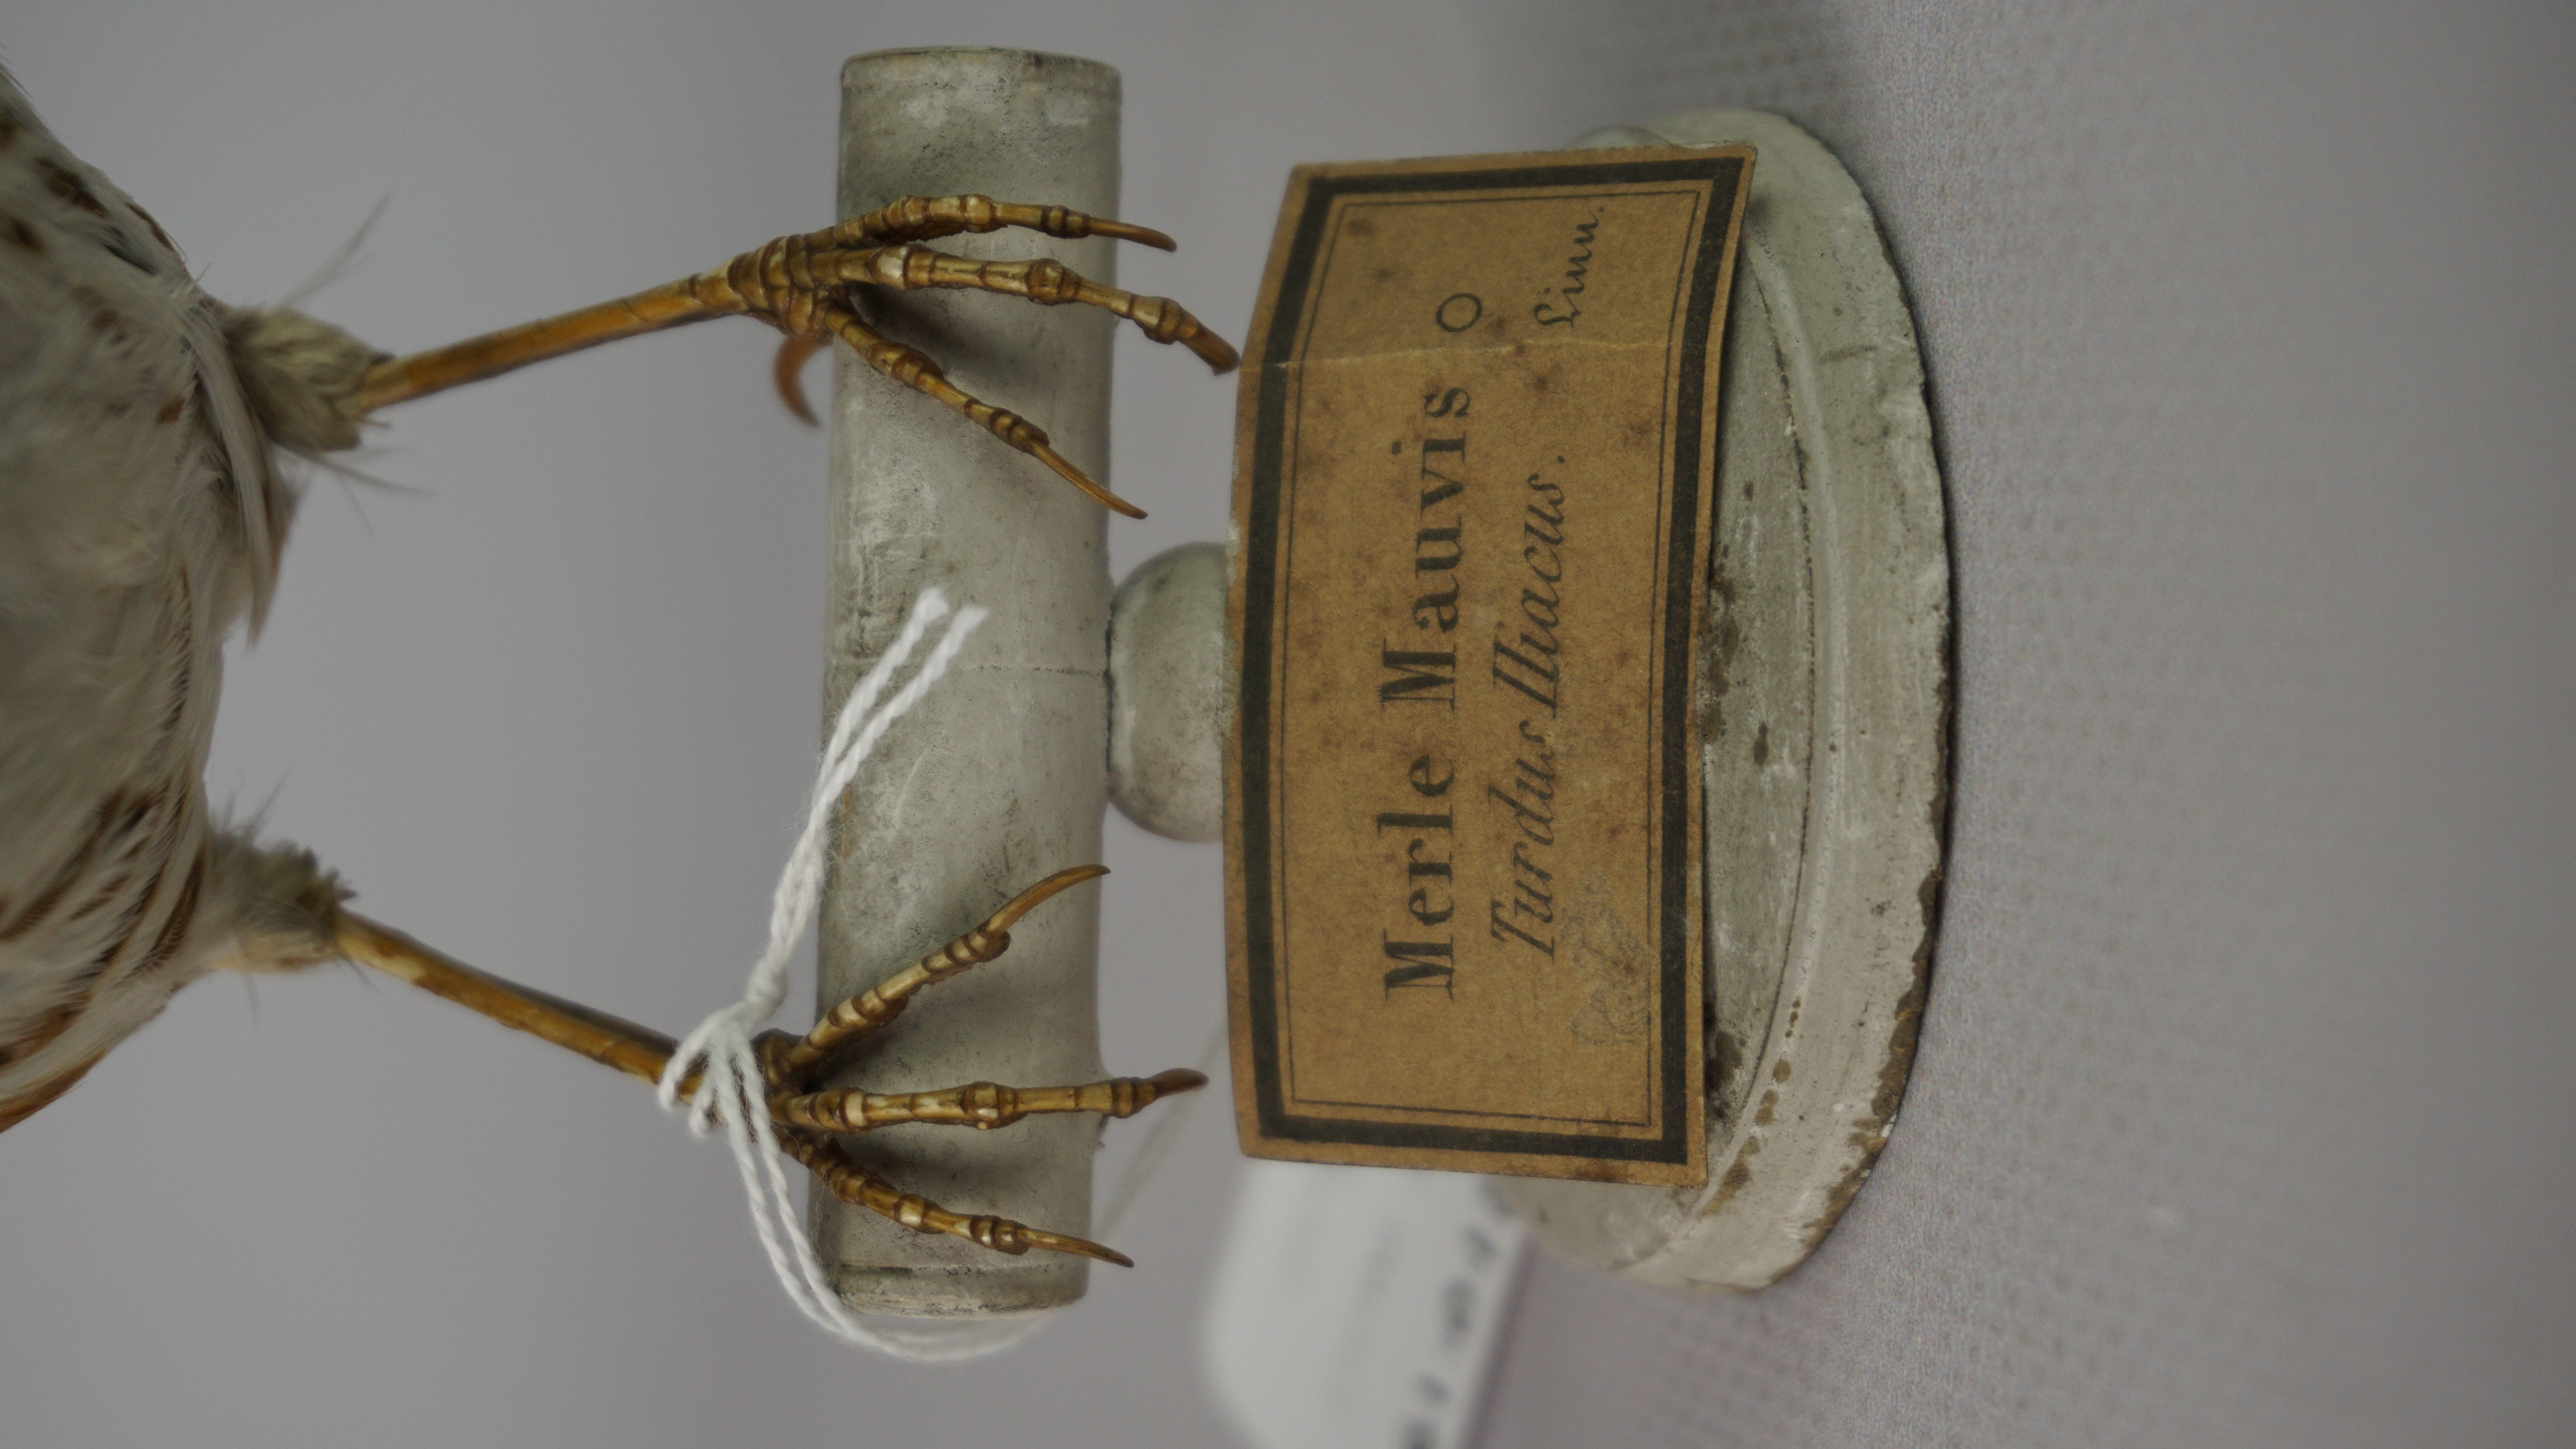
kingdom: Animalia
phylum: Chordata
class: Aves
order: Passeriformes
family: Turdidae
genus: Turdus
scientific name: Turdus iliacus
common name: Redwing
